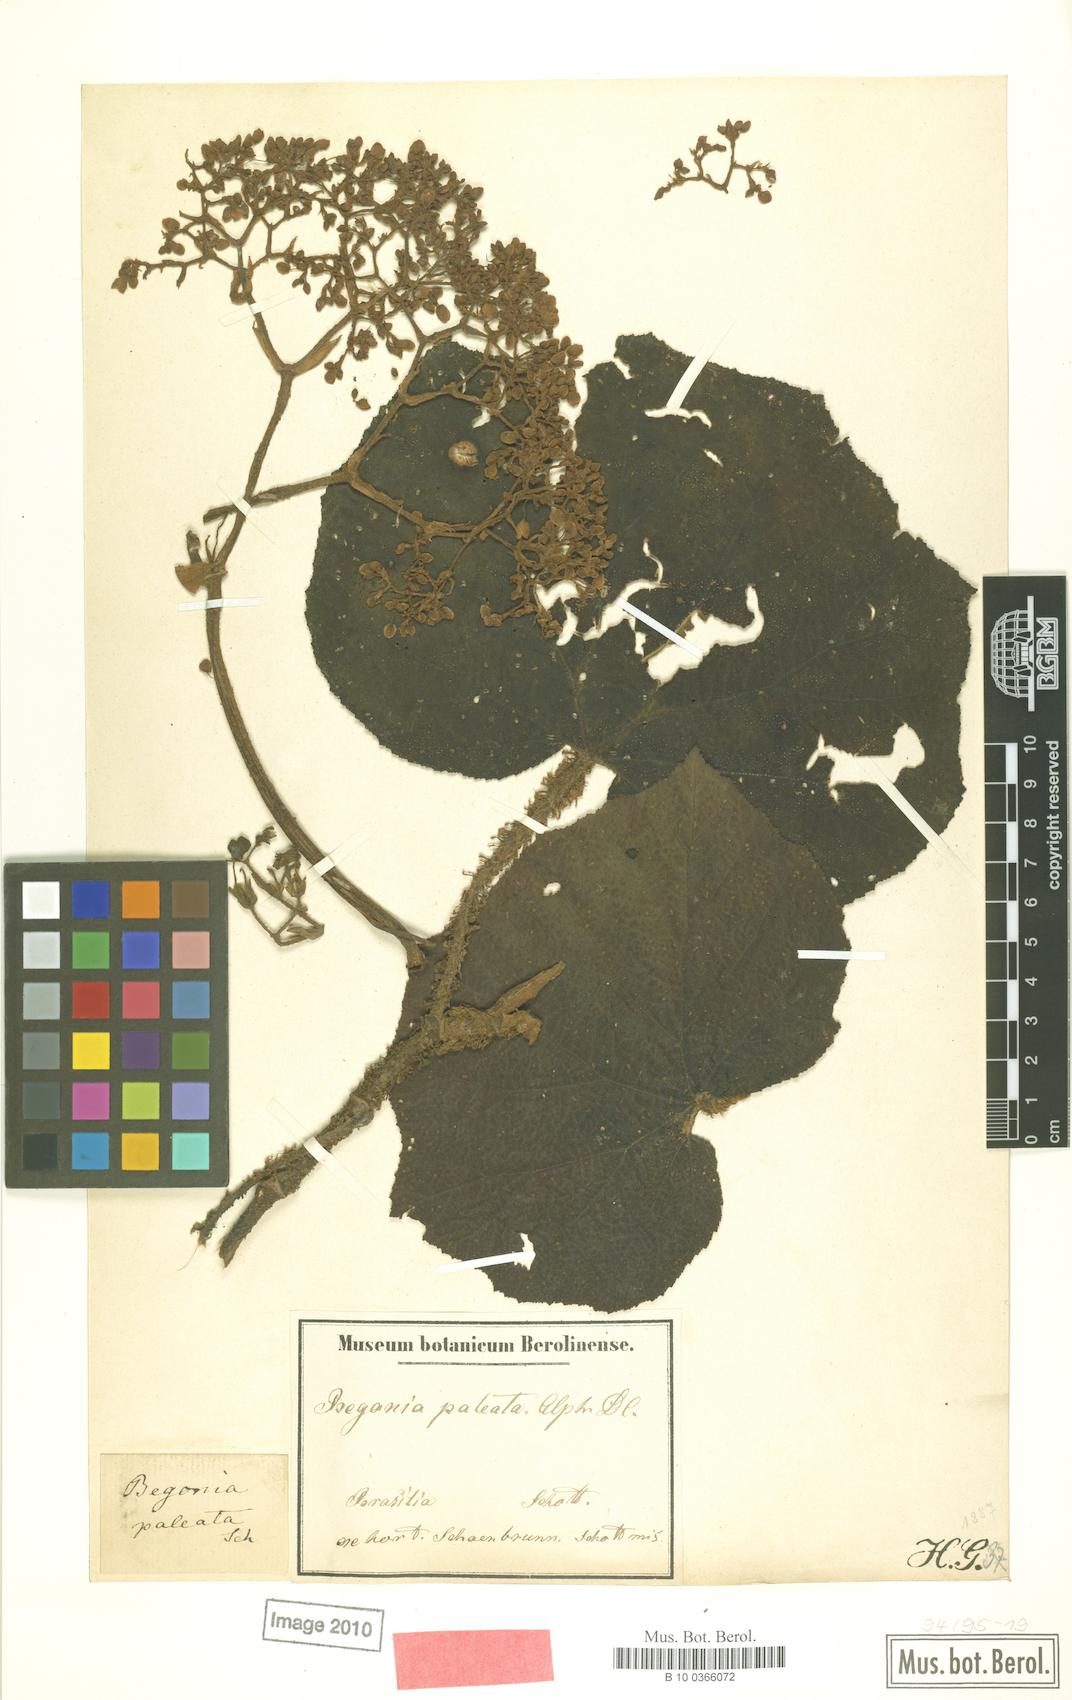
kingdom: Plantae
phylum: Tracheophyta
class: Magnoliopsida
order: Cucurbitales
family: Begoniaceae
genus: Begonia
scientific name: Begonia paleata
